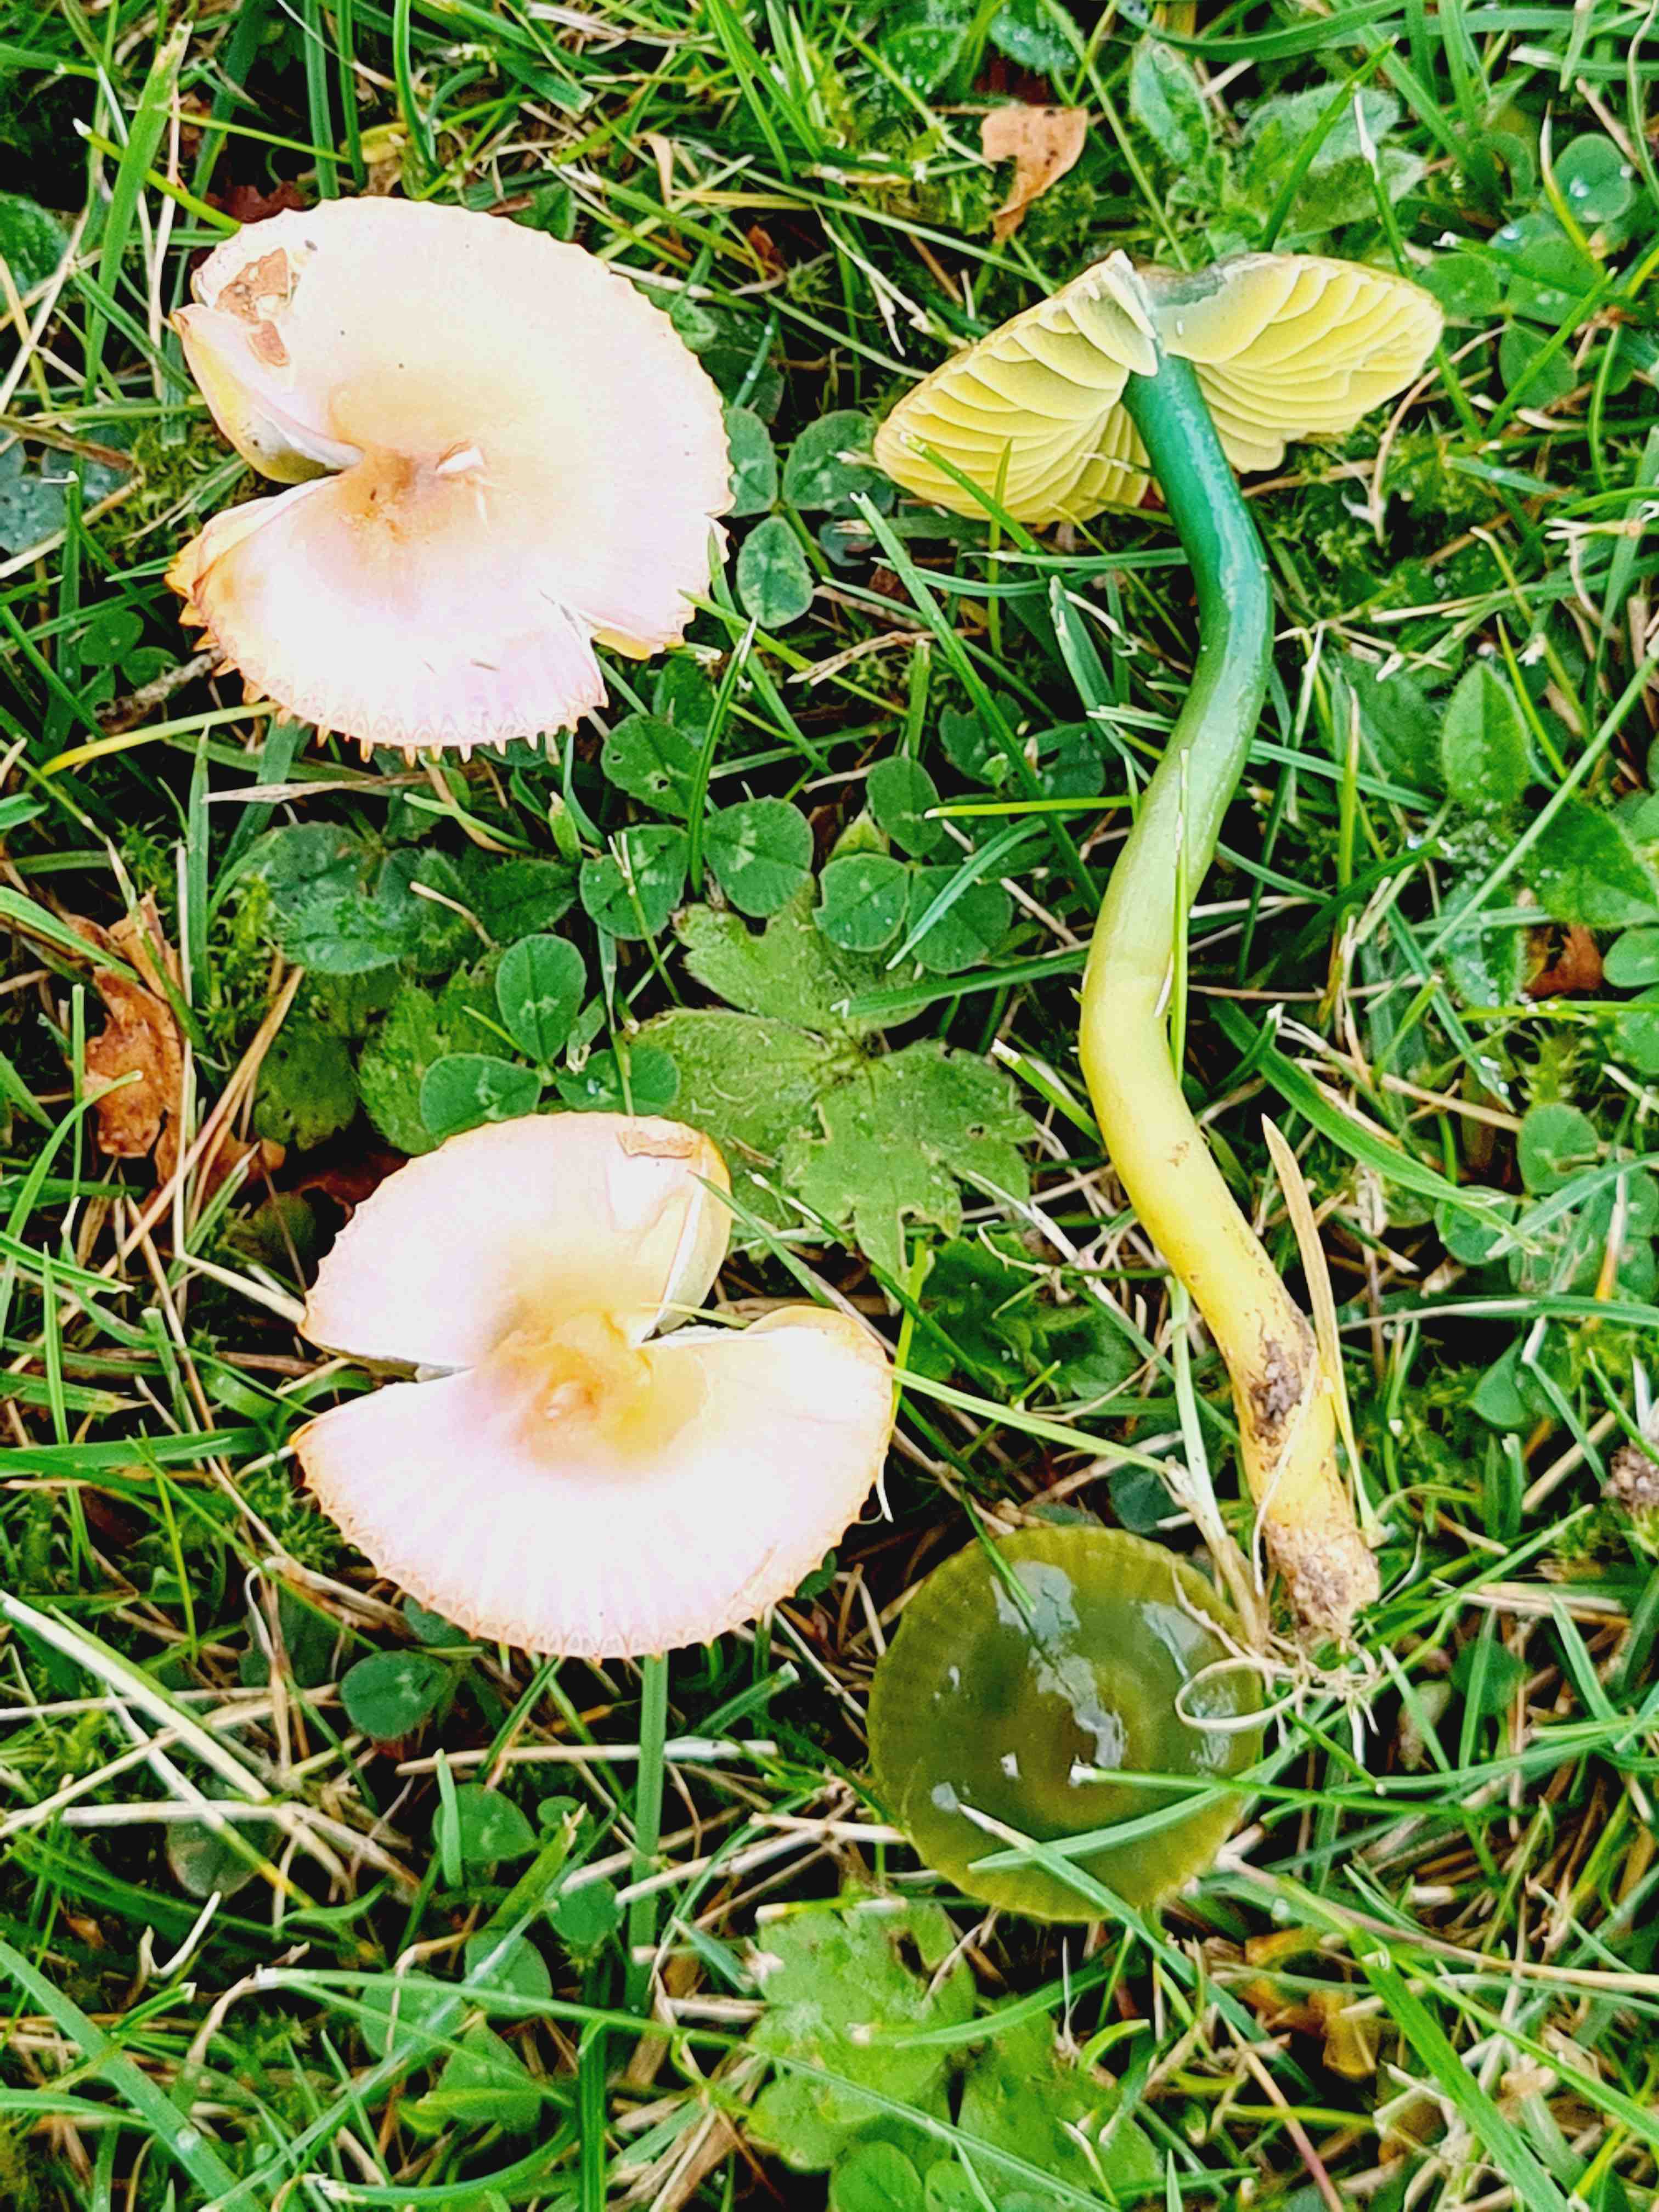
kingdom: Fungi
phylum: Basidiomycota
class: Agaricomycetes
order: Agaricales
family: Hygrophoraceae
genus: Gliophorus
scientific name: Gliophorus psittacinus
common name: papegøje-vokshat
